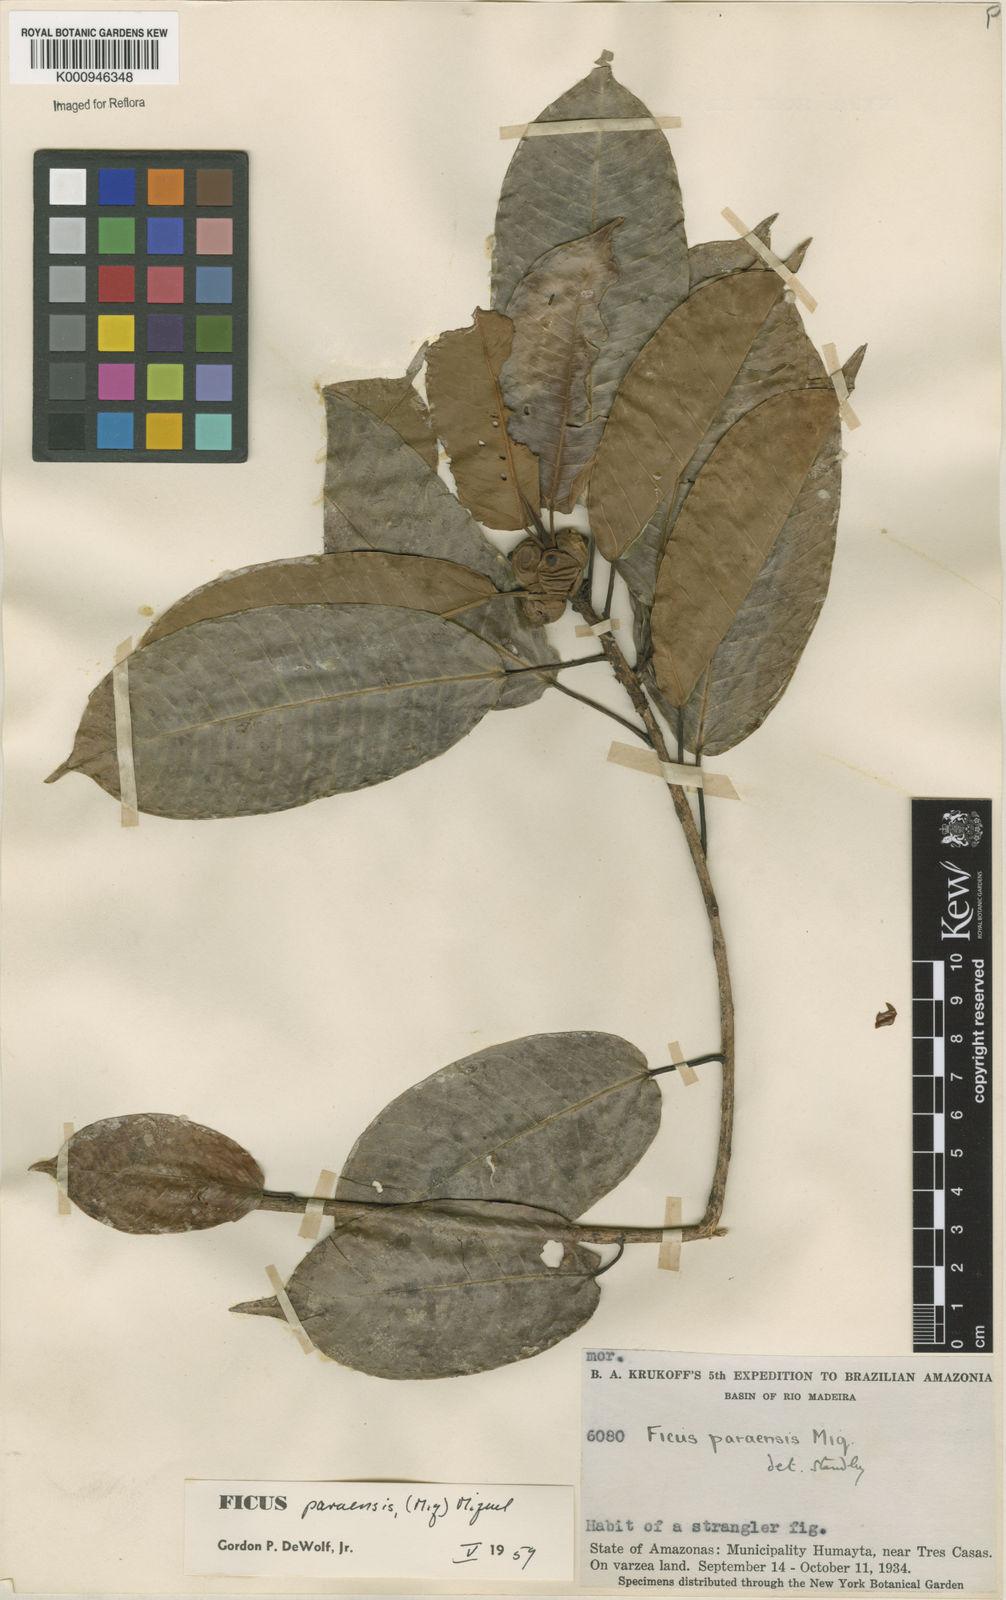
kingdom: Plantae
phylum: Tracheophyta
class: Magnoliopsida
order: Rosales
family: Moraceae
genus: Ficus
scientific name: Ficus paraensis
